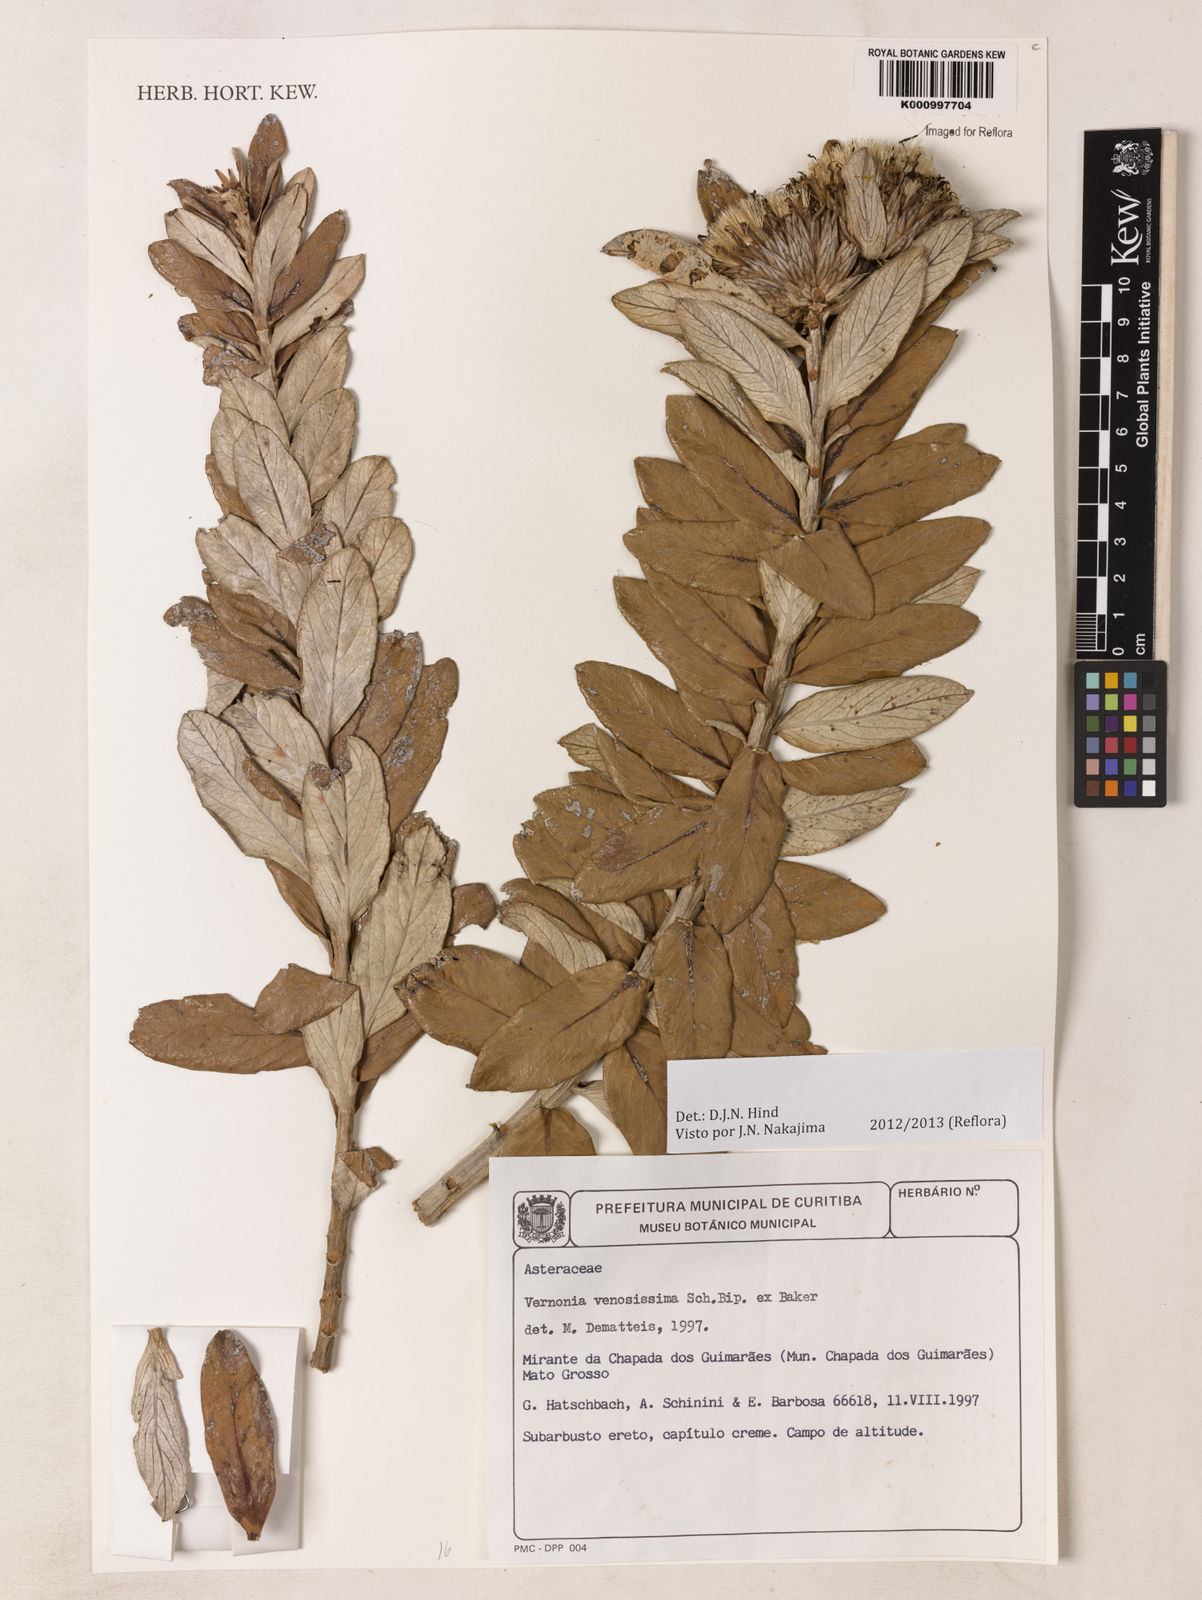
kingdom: Plantae
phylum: Tracheophyta
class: Magnoliopsida
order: Asterales
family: Asteraceae
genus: Lessingianthus
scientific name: Lessingianthus venosissimus
